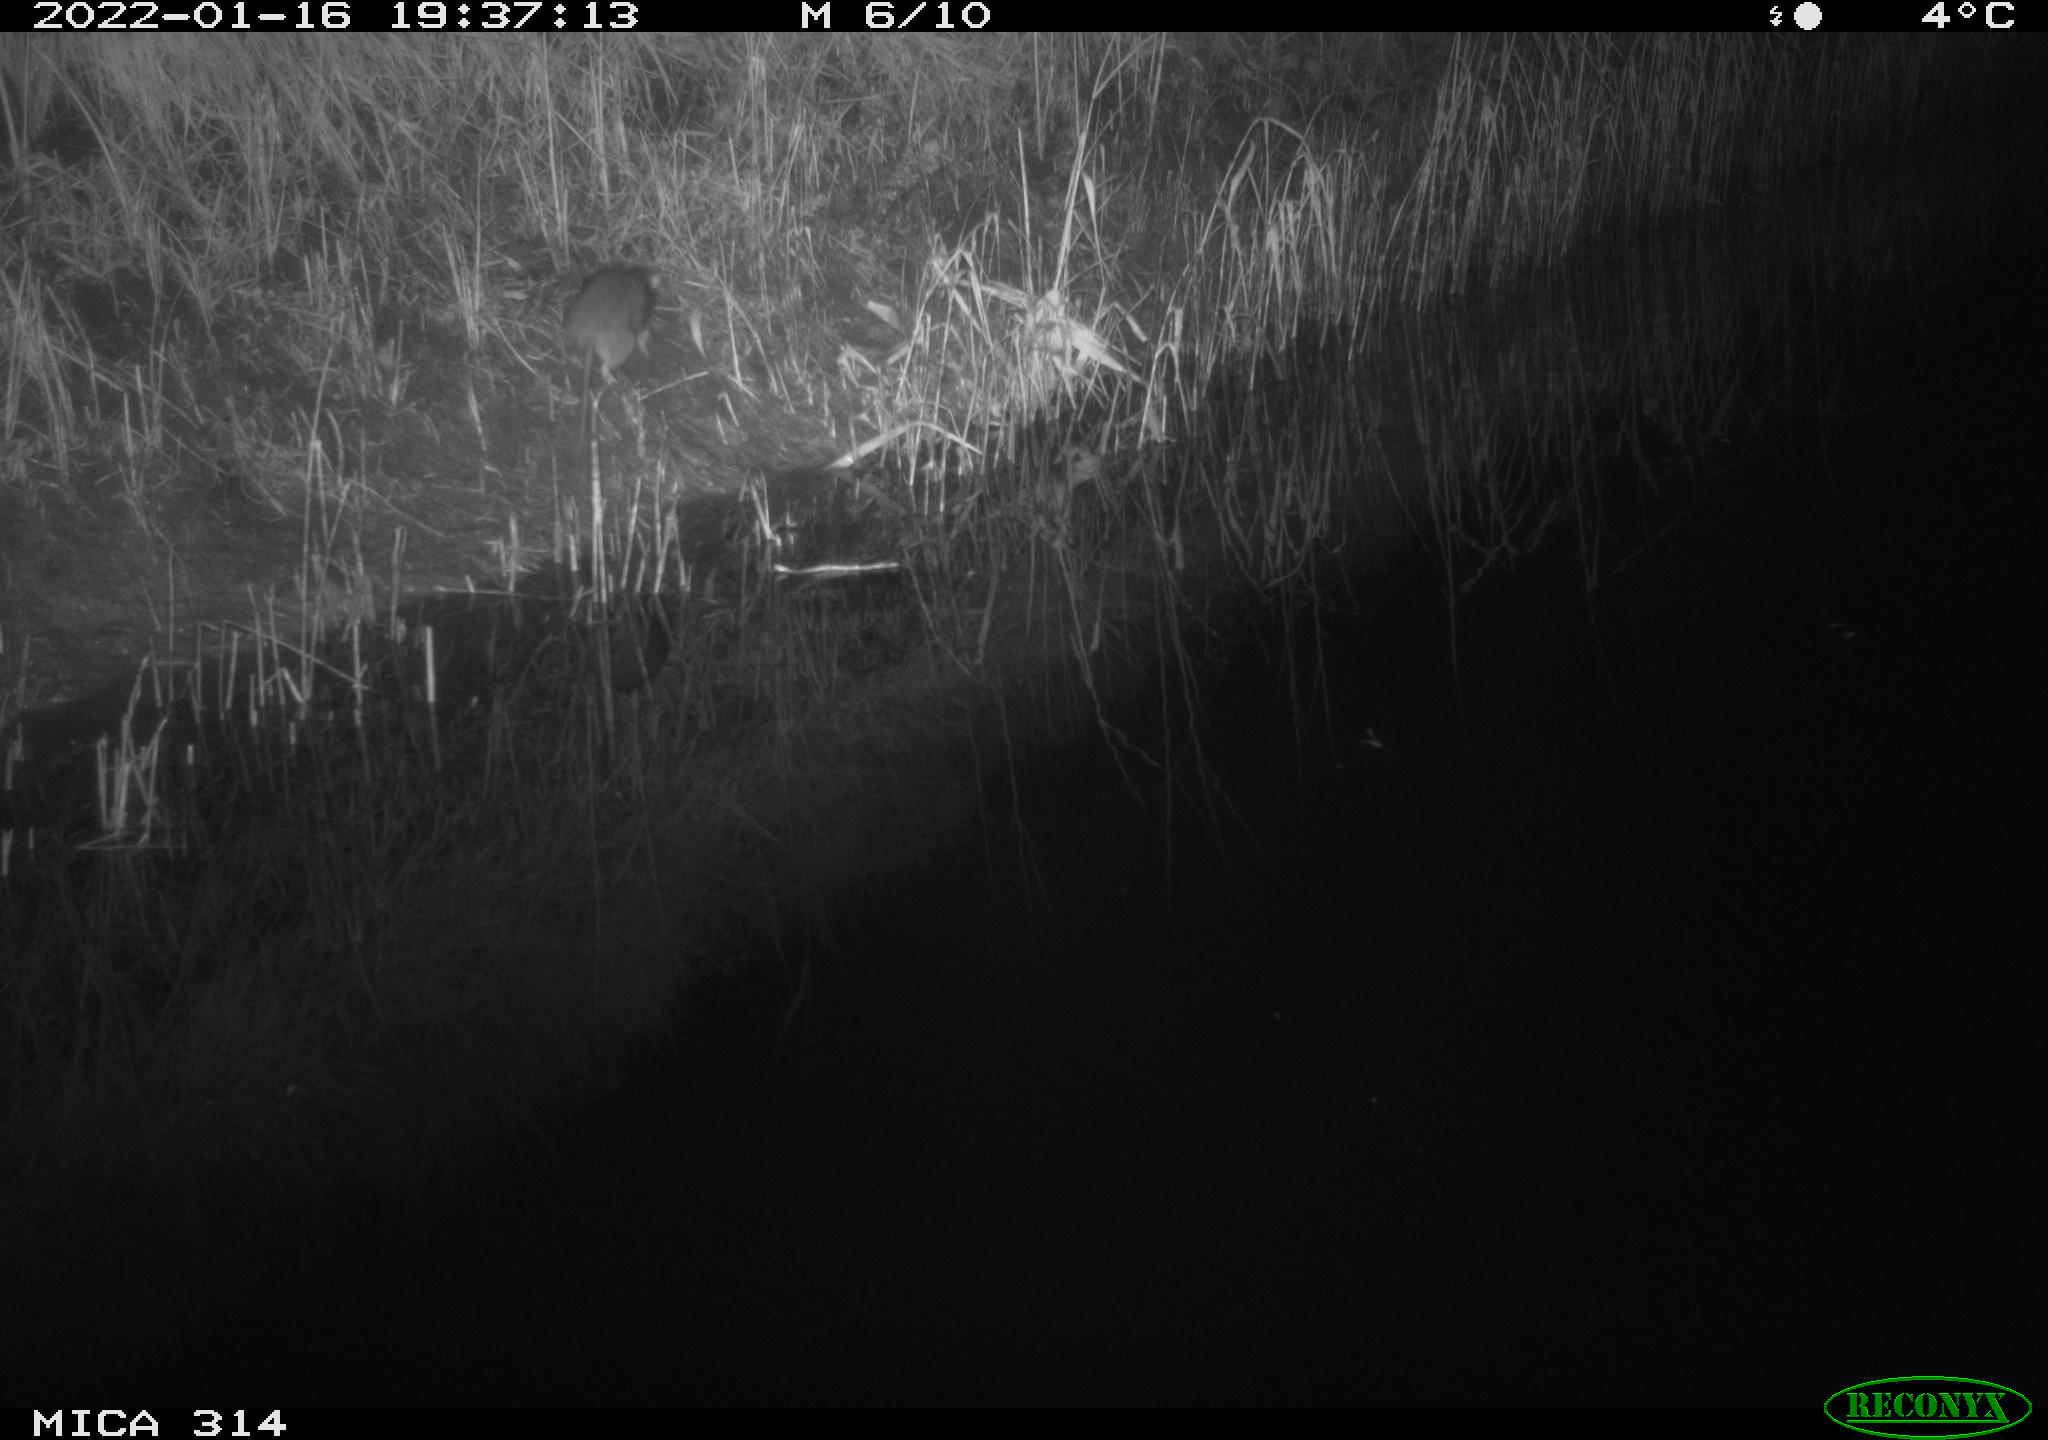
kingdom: Animalia
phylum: Chordata
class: Mammalia
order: Rodentia
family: Muridae
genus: Rattus
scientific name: Rattus norvegicus
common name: Brown rat
